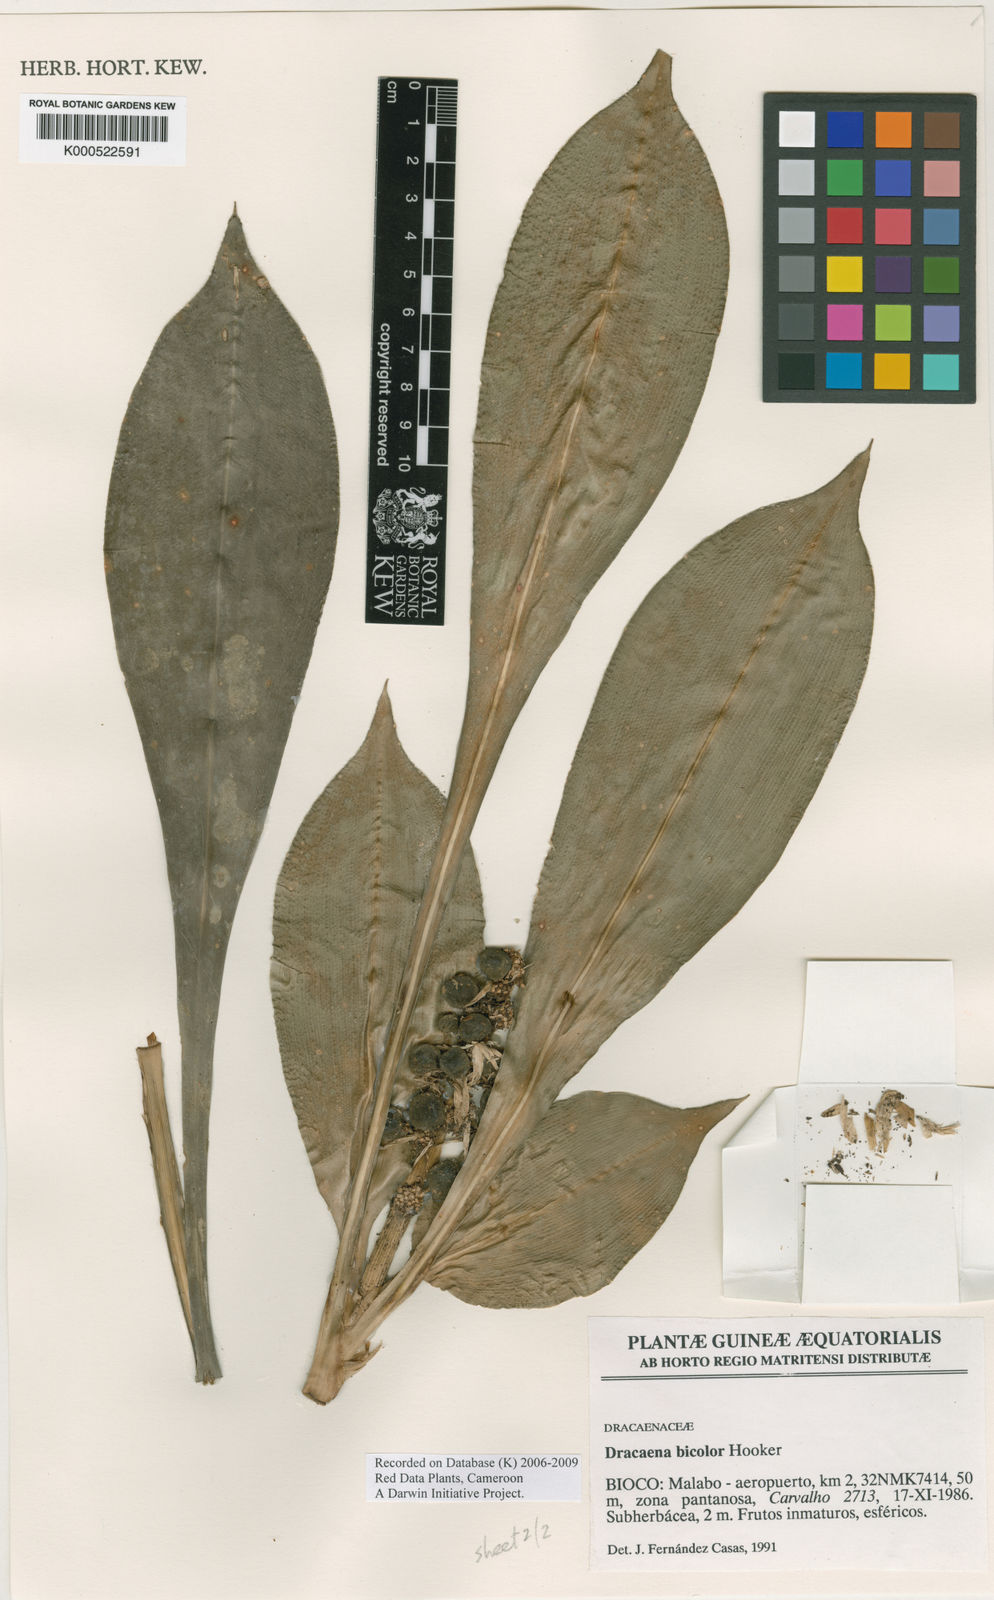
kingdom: Plantae
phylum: Tracheophyta
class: Liliopsida
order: Asparagales
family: Asparagaceae
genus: Dracaena
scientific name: Dracaena bicolor
